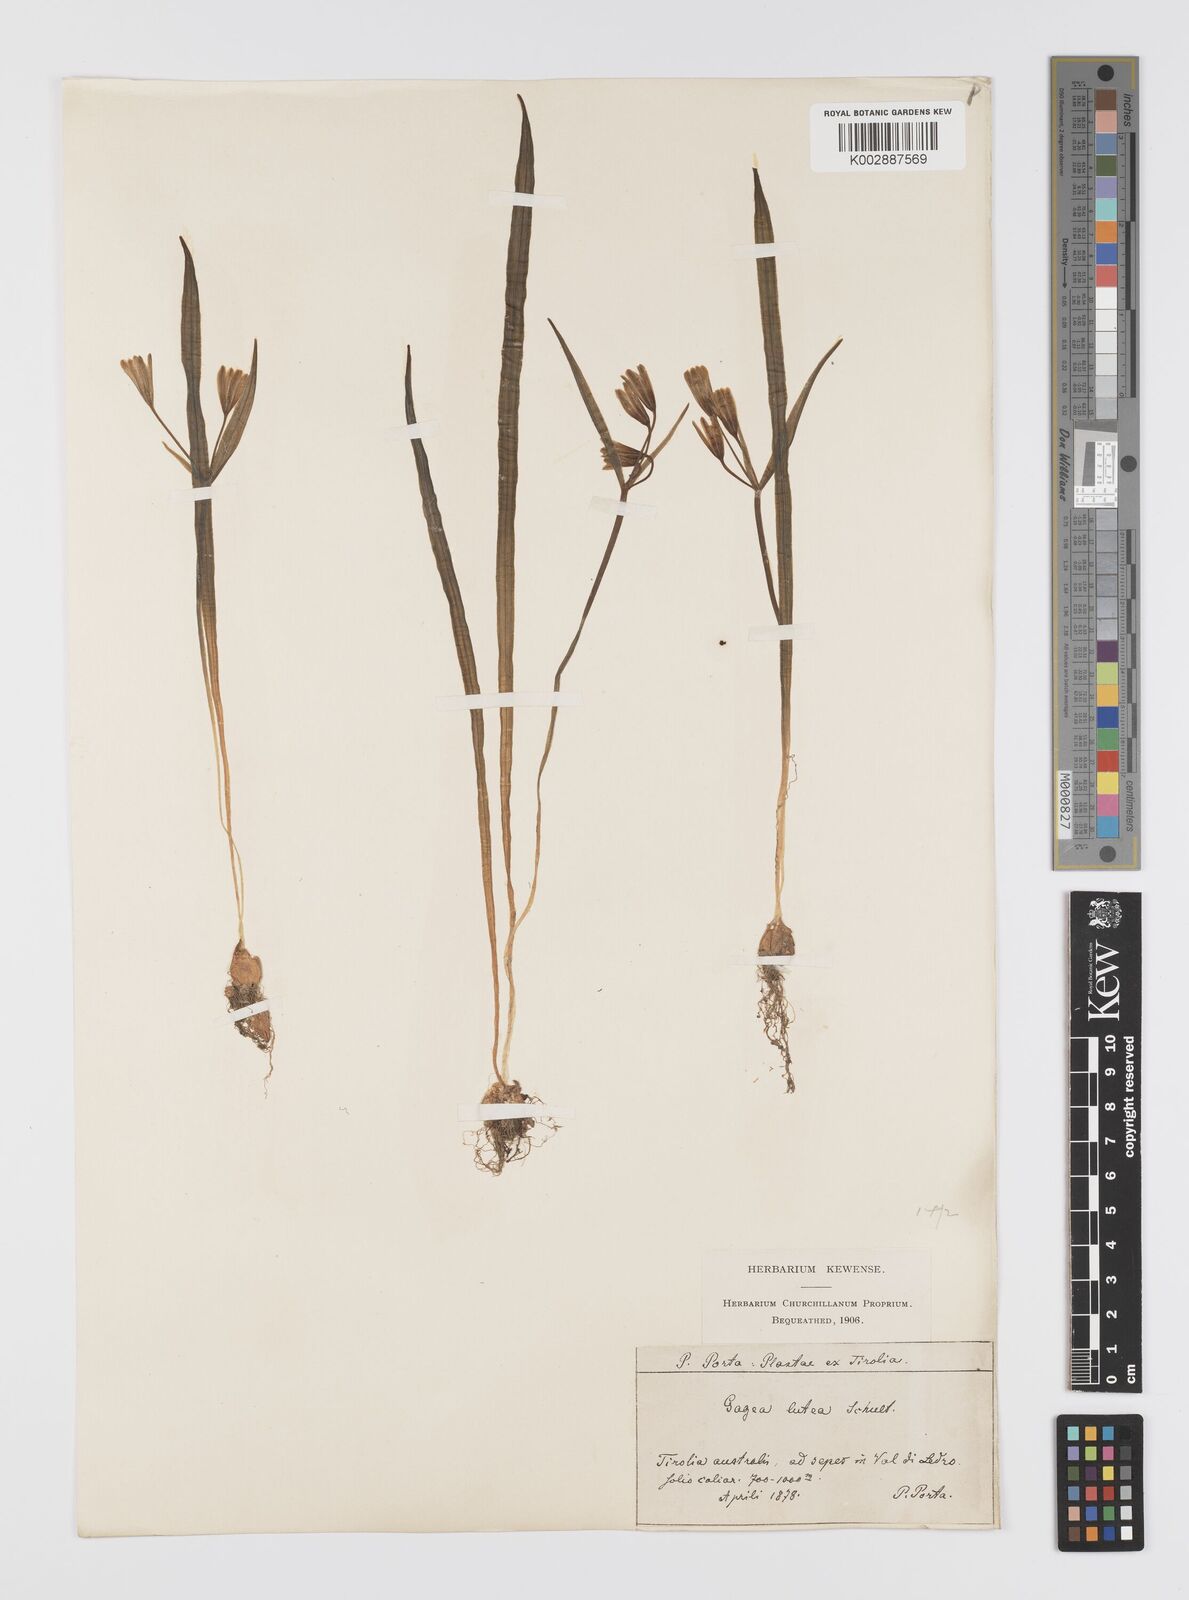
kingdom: Plantae
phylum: Tracheophyta
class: Liliopsida
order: Liliales
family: Liliaceae
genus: Gagea
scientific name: Gagea lutea
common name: Yellow star-of-bethlehem
